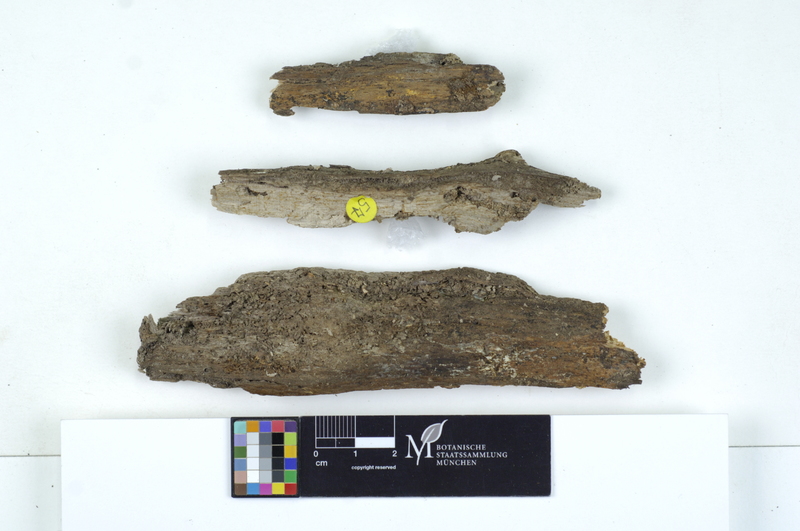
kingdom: Plantae
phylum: Tracheophyta
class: Magnoliopsida
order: Fagales
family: Fagaceae
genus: Fagus
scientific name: Fagus sylvatica
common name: Beech
